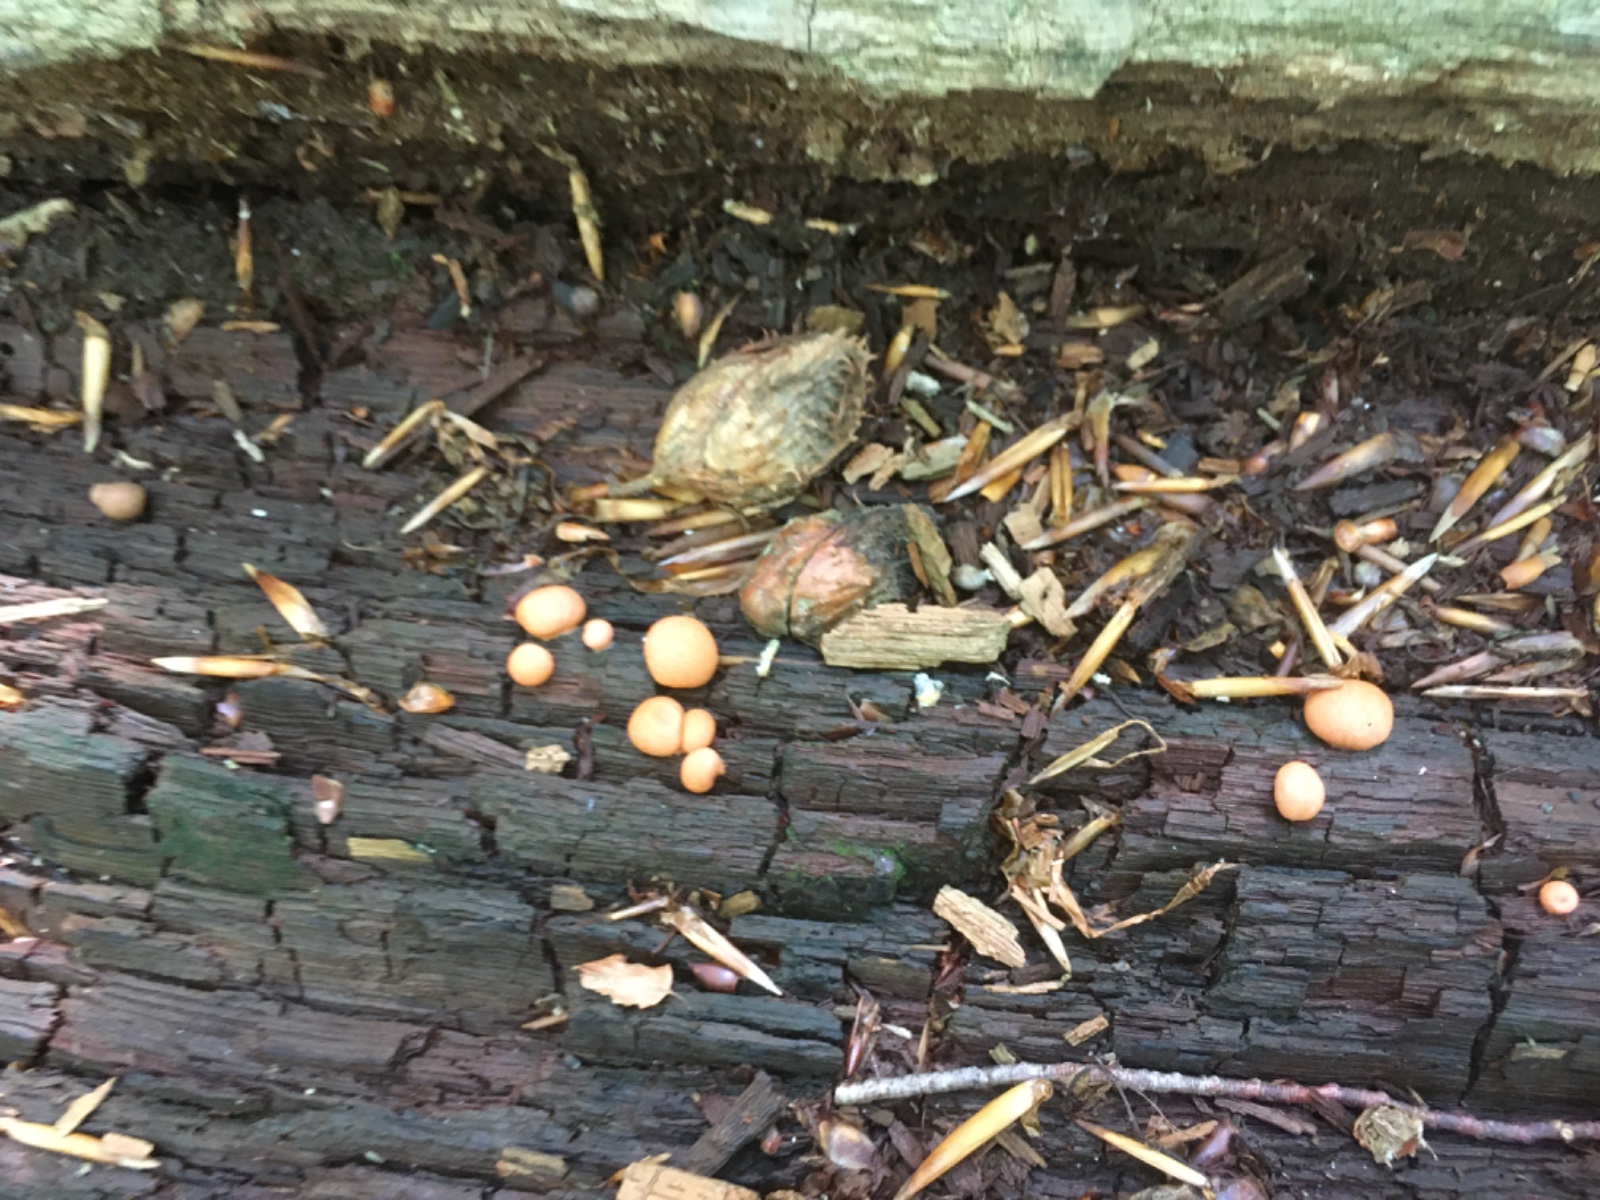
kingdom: Protozoa
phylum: Mycetozoa
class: Myxomycetes
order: Cribrariales
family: Tubiferaceae
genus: Lycogala
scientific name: Lycogala epidendrum
